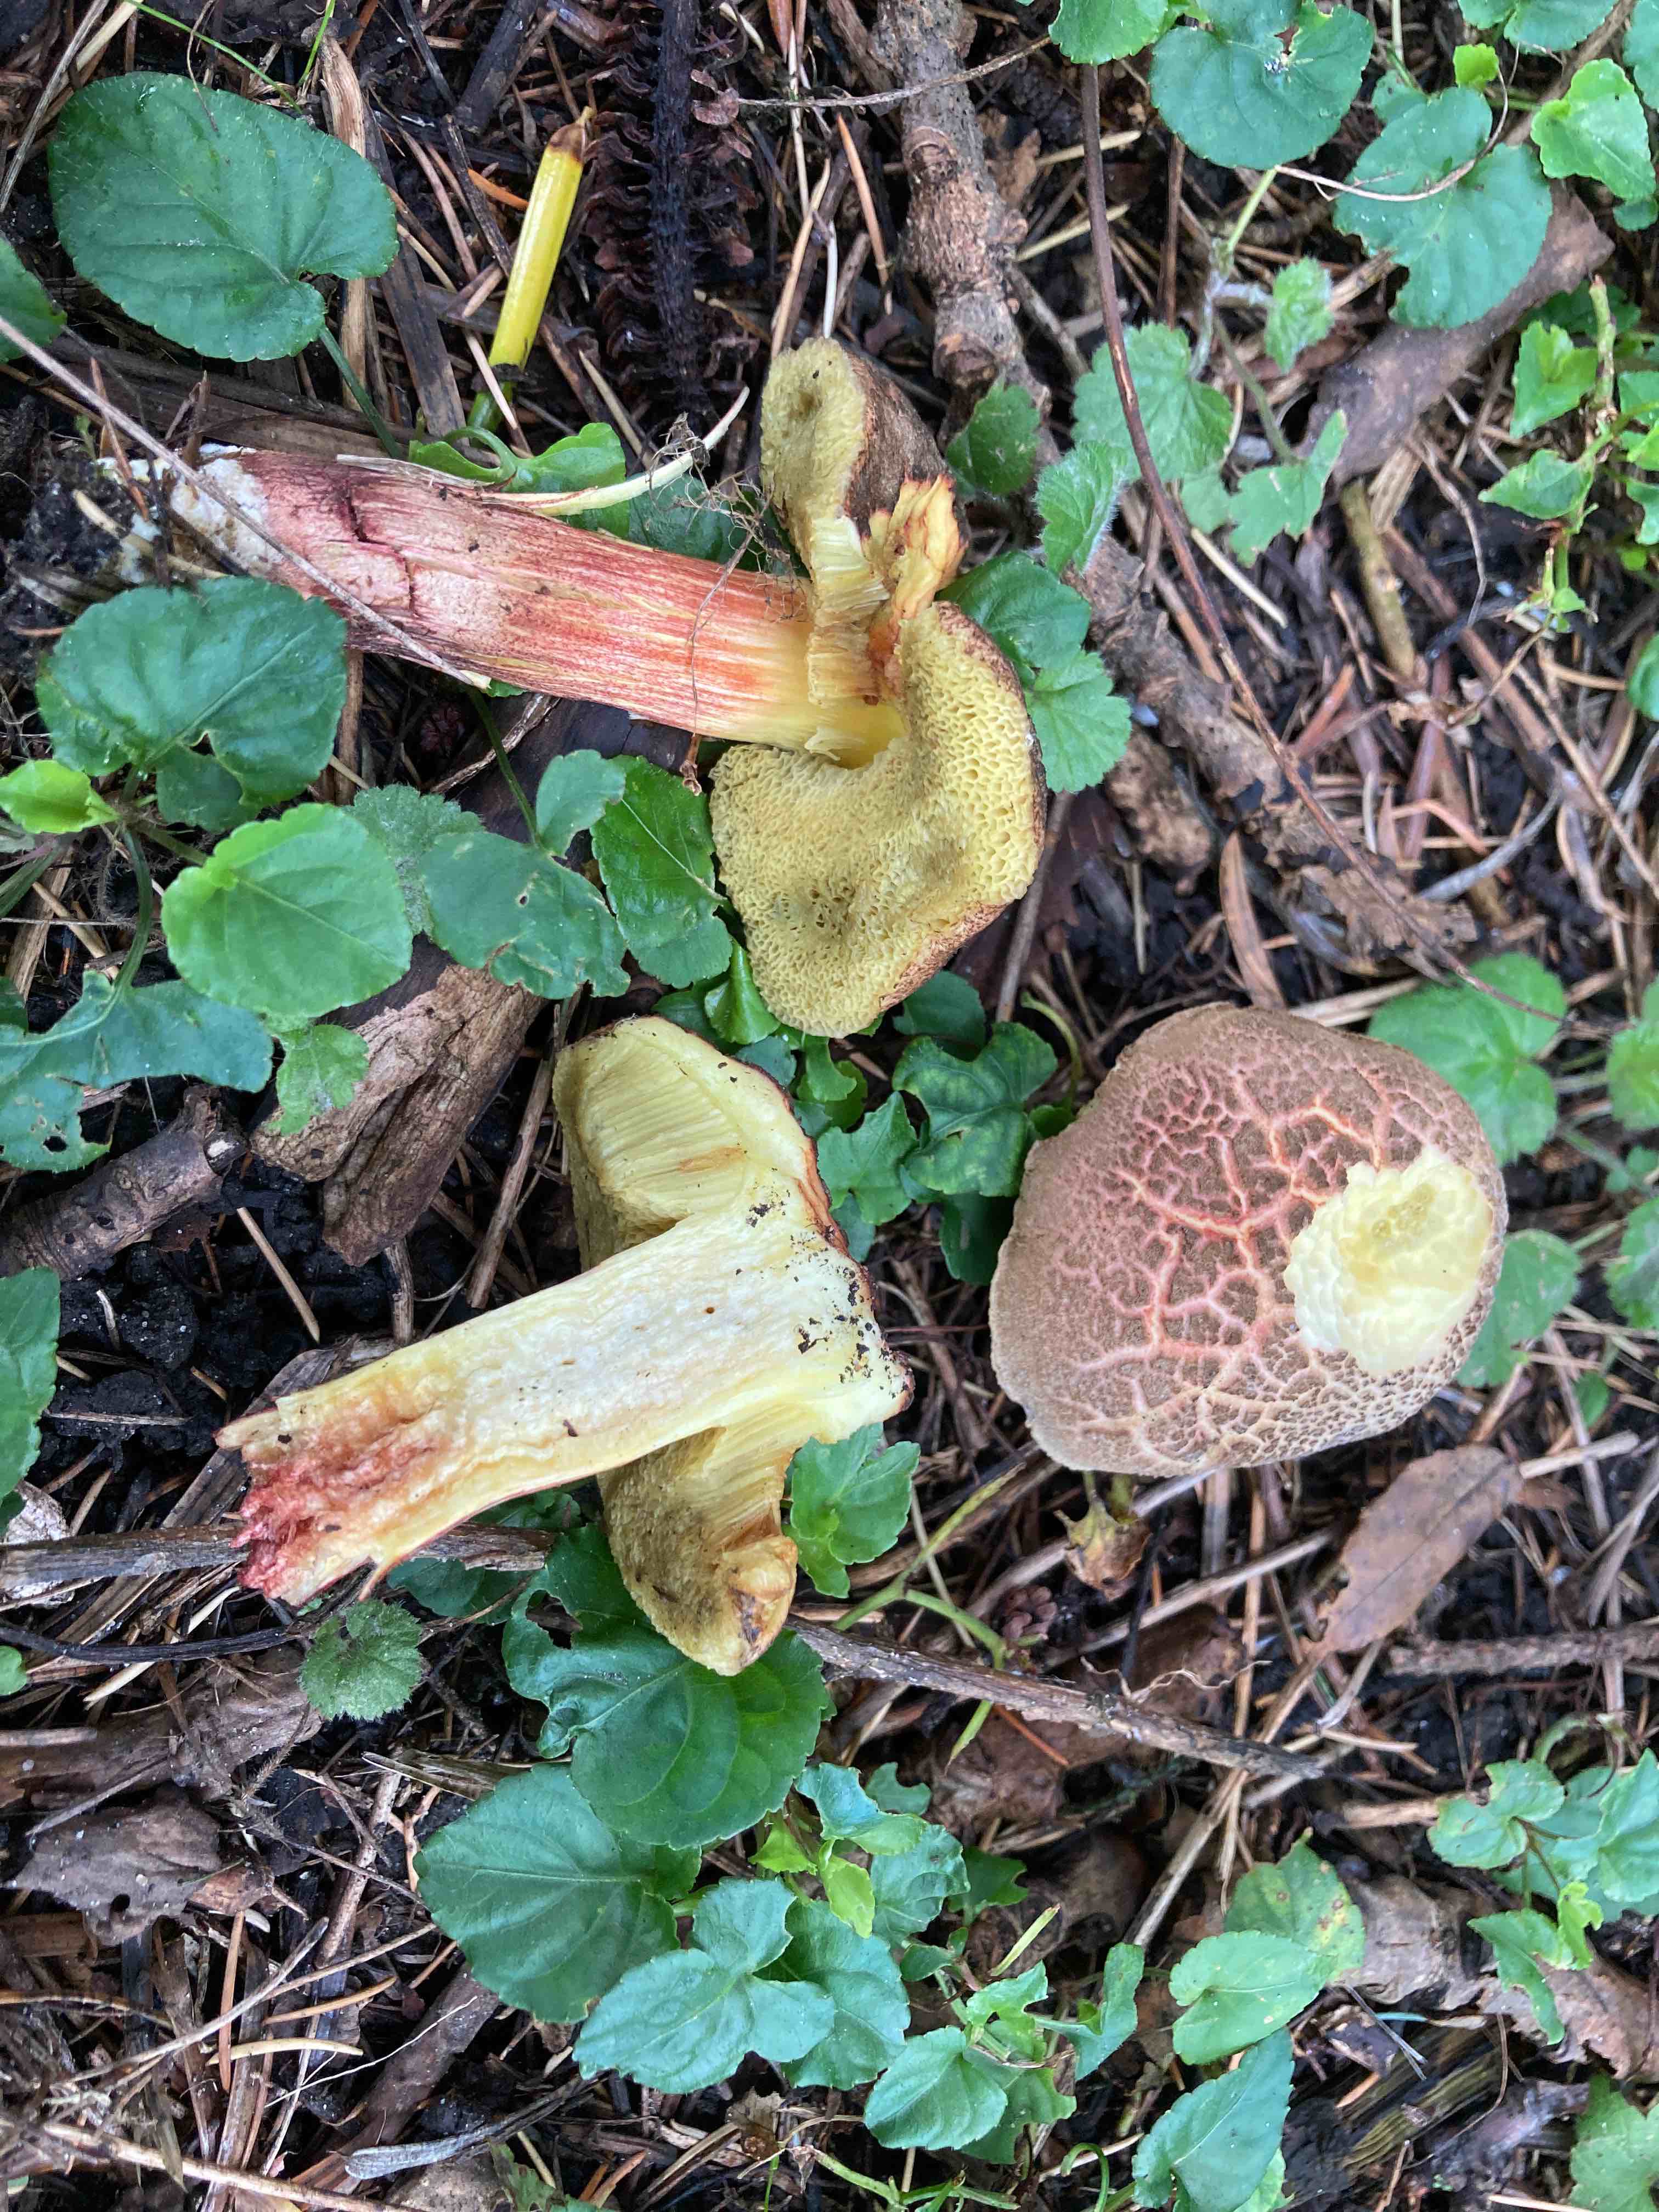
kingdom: Fungi
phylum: Basidiomycota
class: Agaricomycetes
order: Boletales
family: Boletaceae
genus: Xerocomellus
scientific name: Xerocomellus
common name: dværgrørhat
